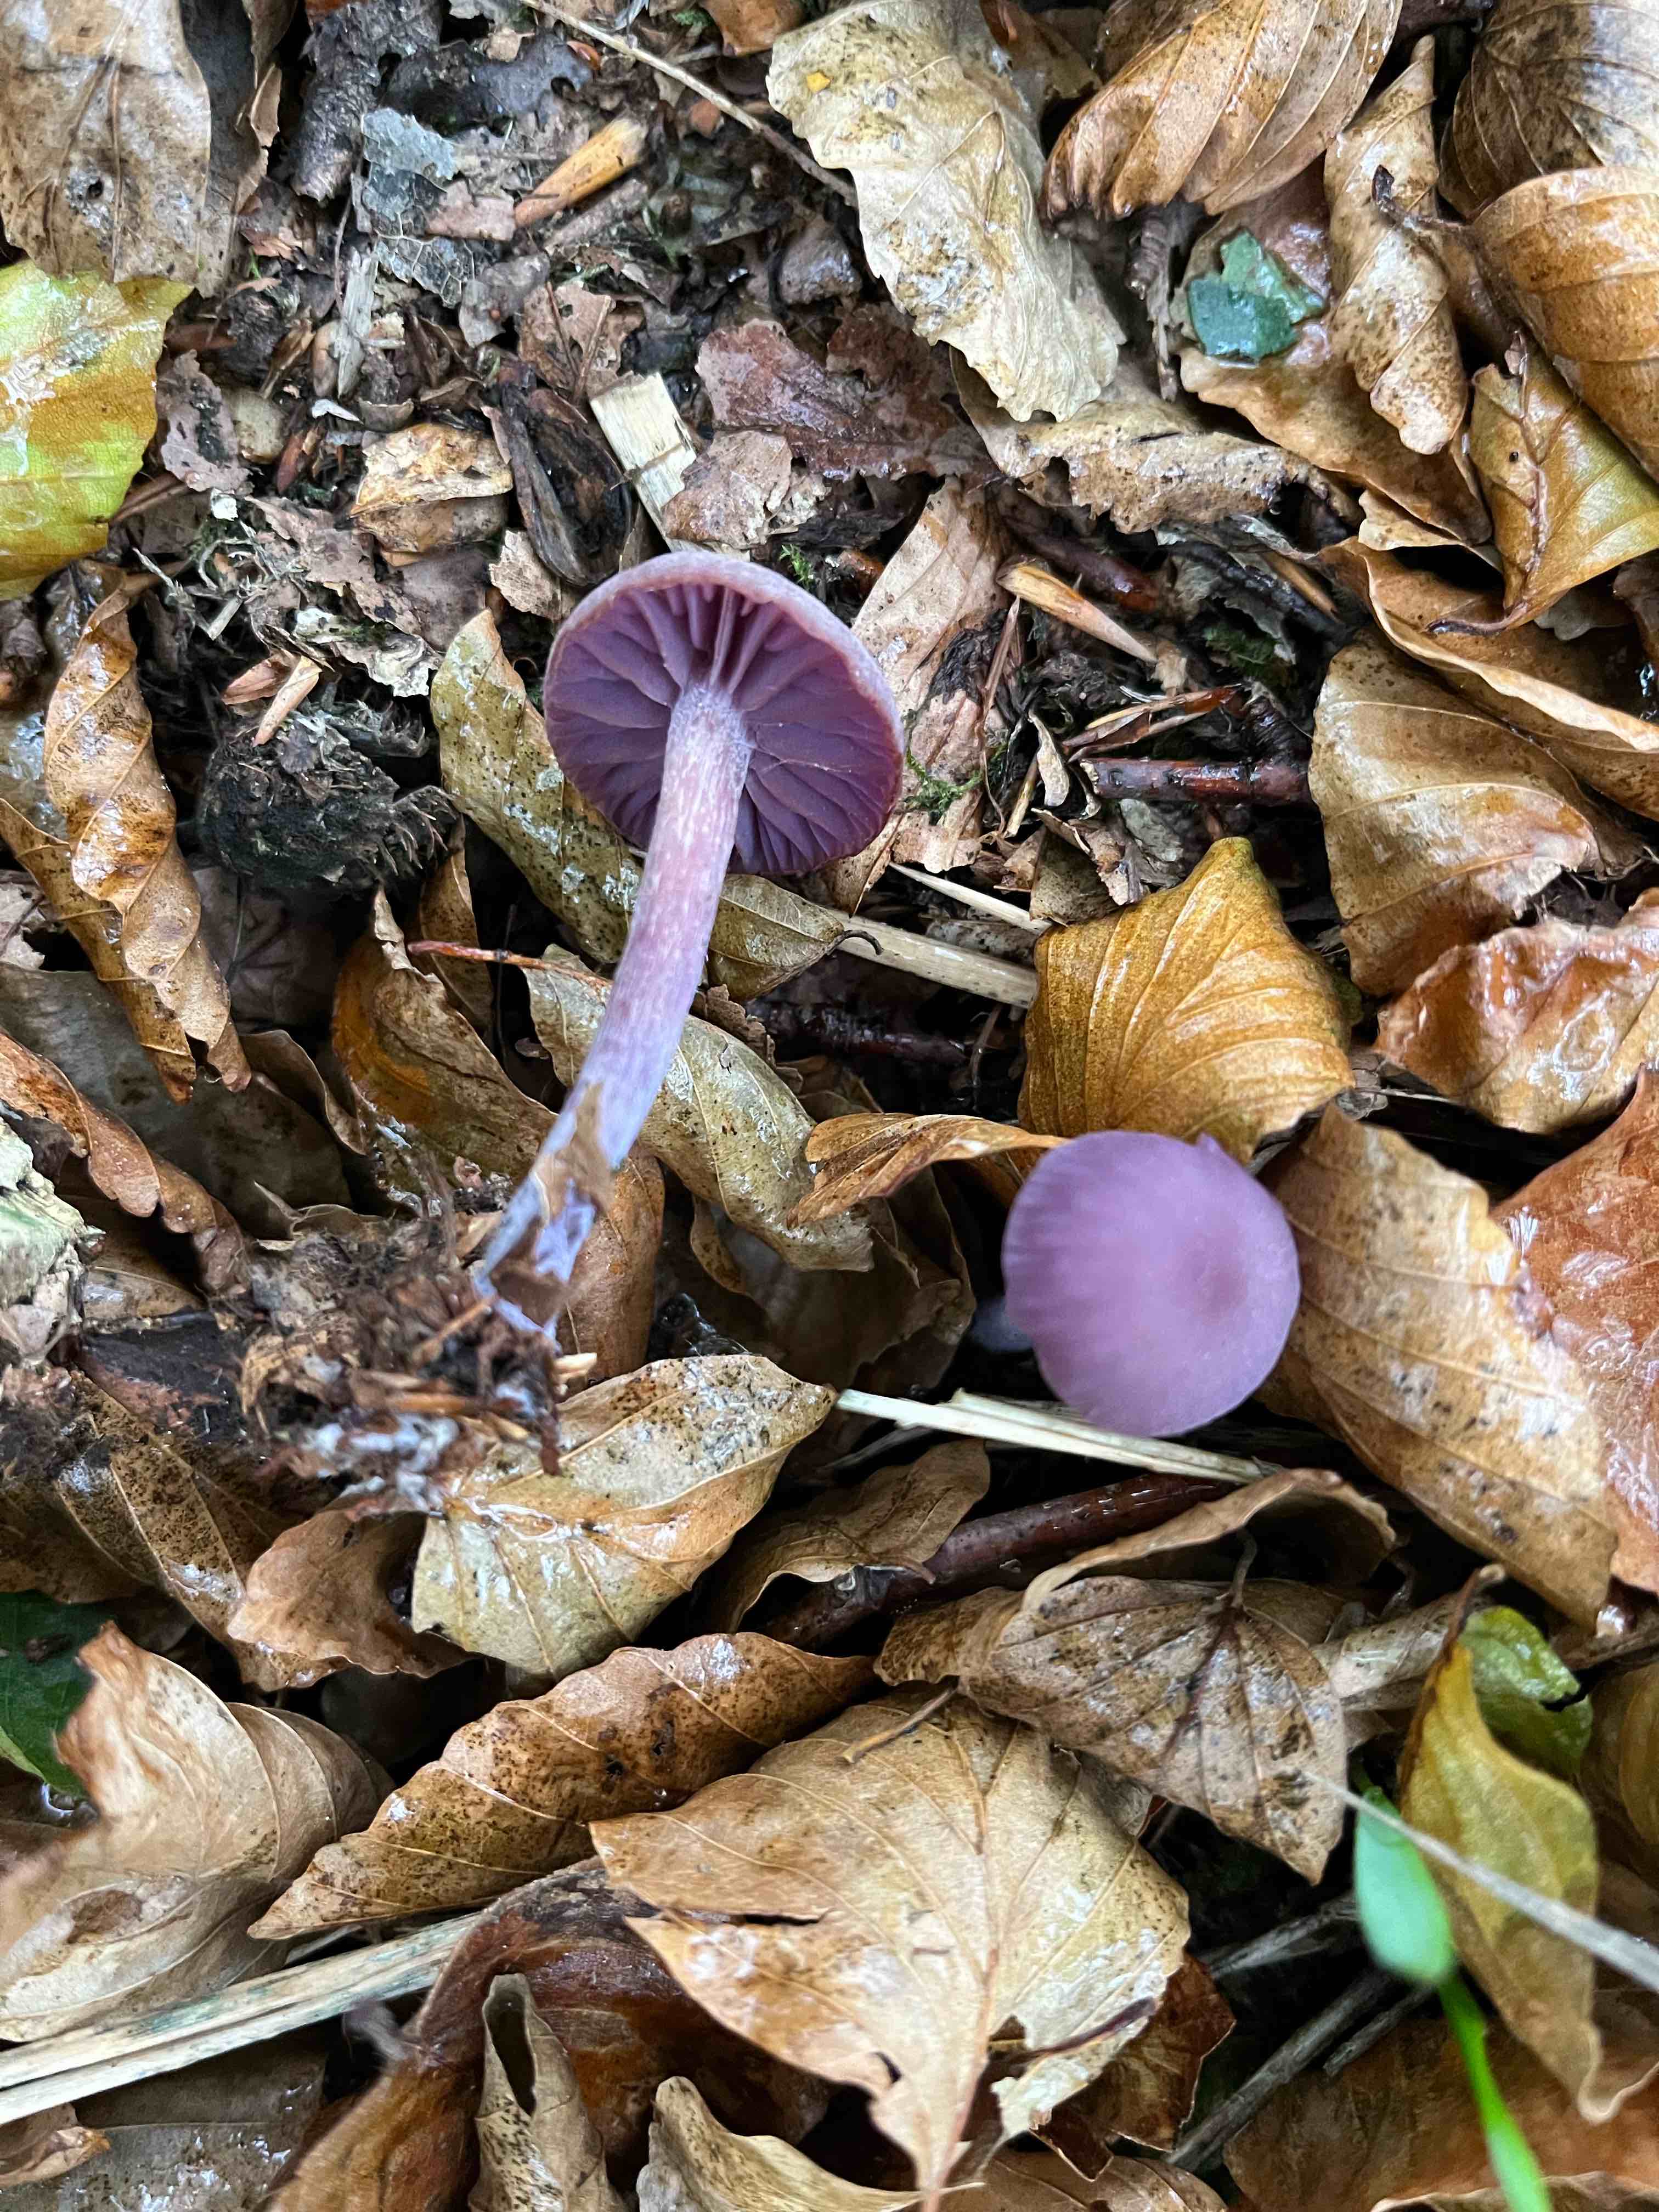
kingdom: Fungi
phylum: Basidiomycota
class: Agaricomycetes
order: Agaricales
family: Hydnangiaceae
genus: Laccaria
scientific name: Laccaria amethystina
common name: violet ametysthat
